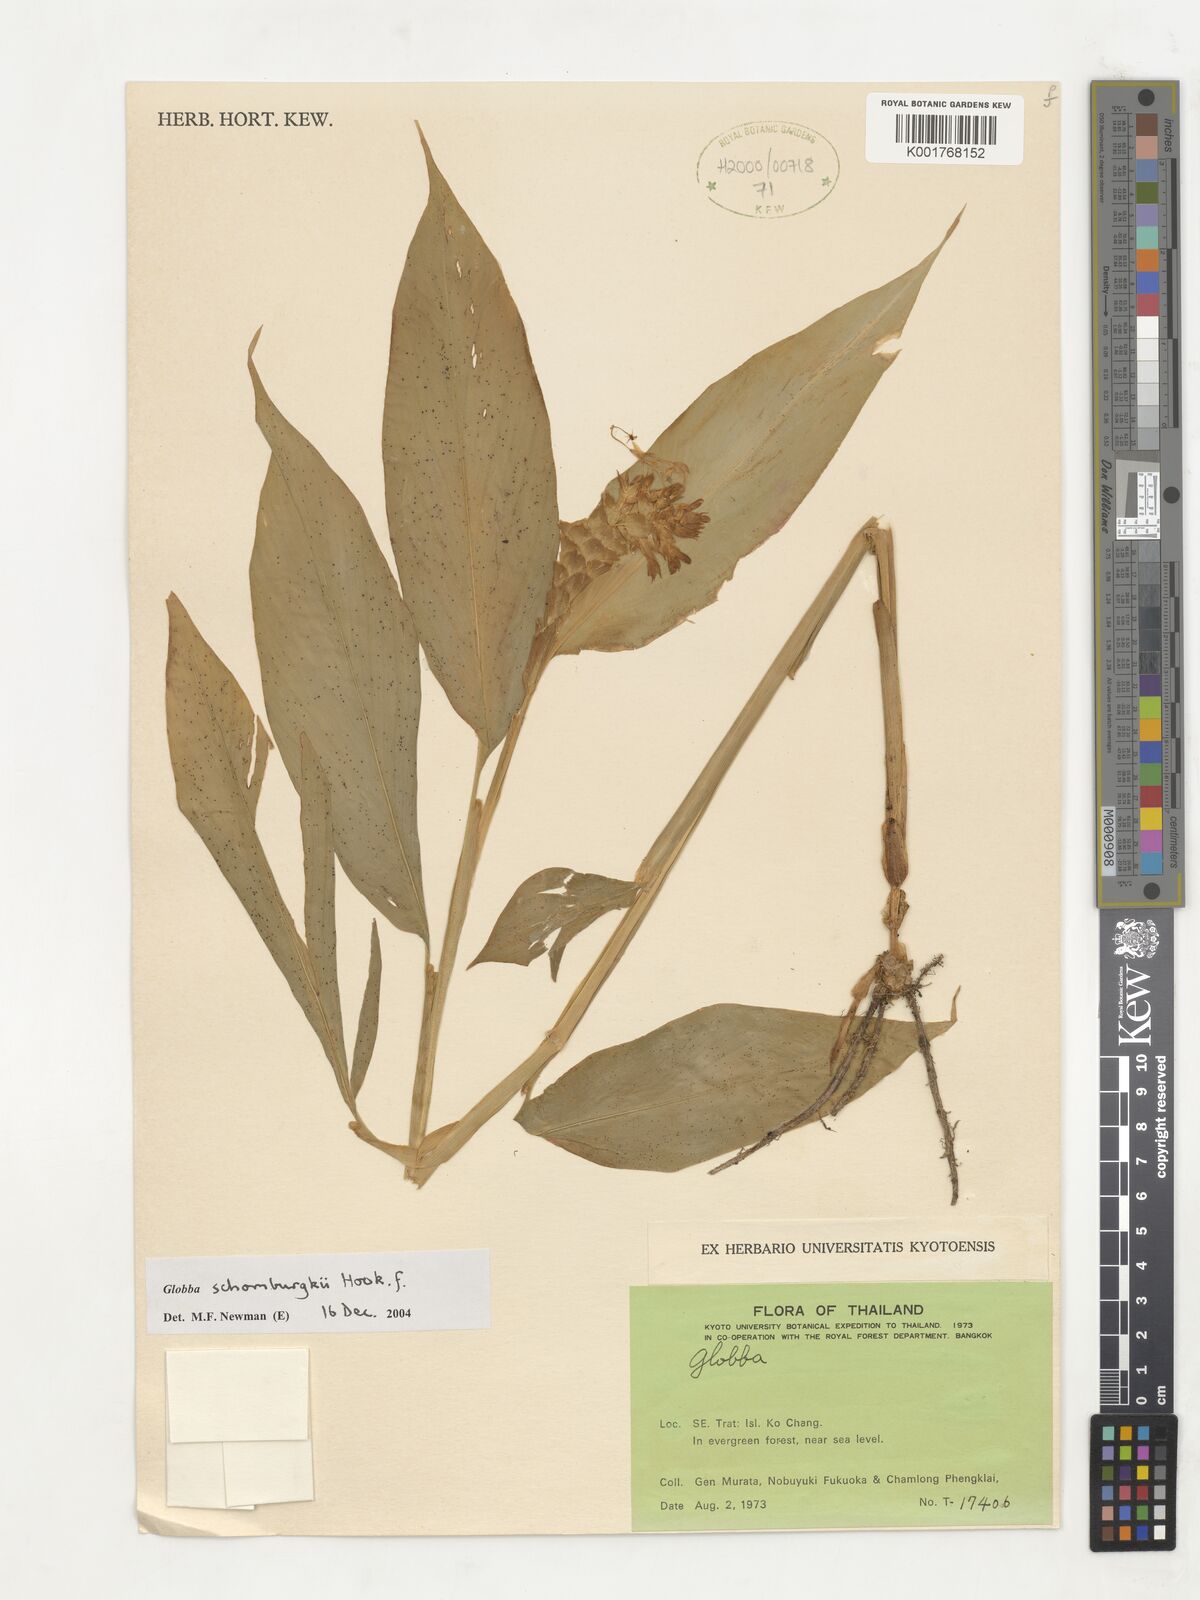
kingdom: Plantae
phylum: Tracheophyta
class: Liliopsida
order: Zingiberales
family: Zingiberaceae
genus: Globba
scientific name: Globba schomburgkii
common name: Dancing girl ginger
